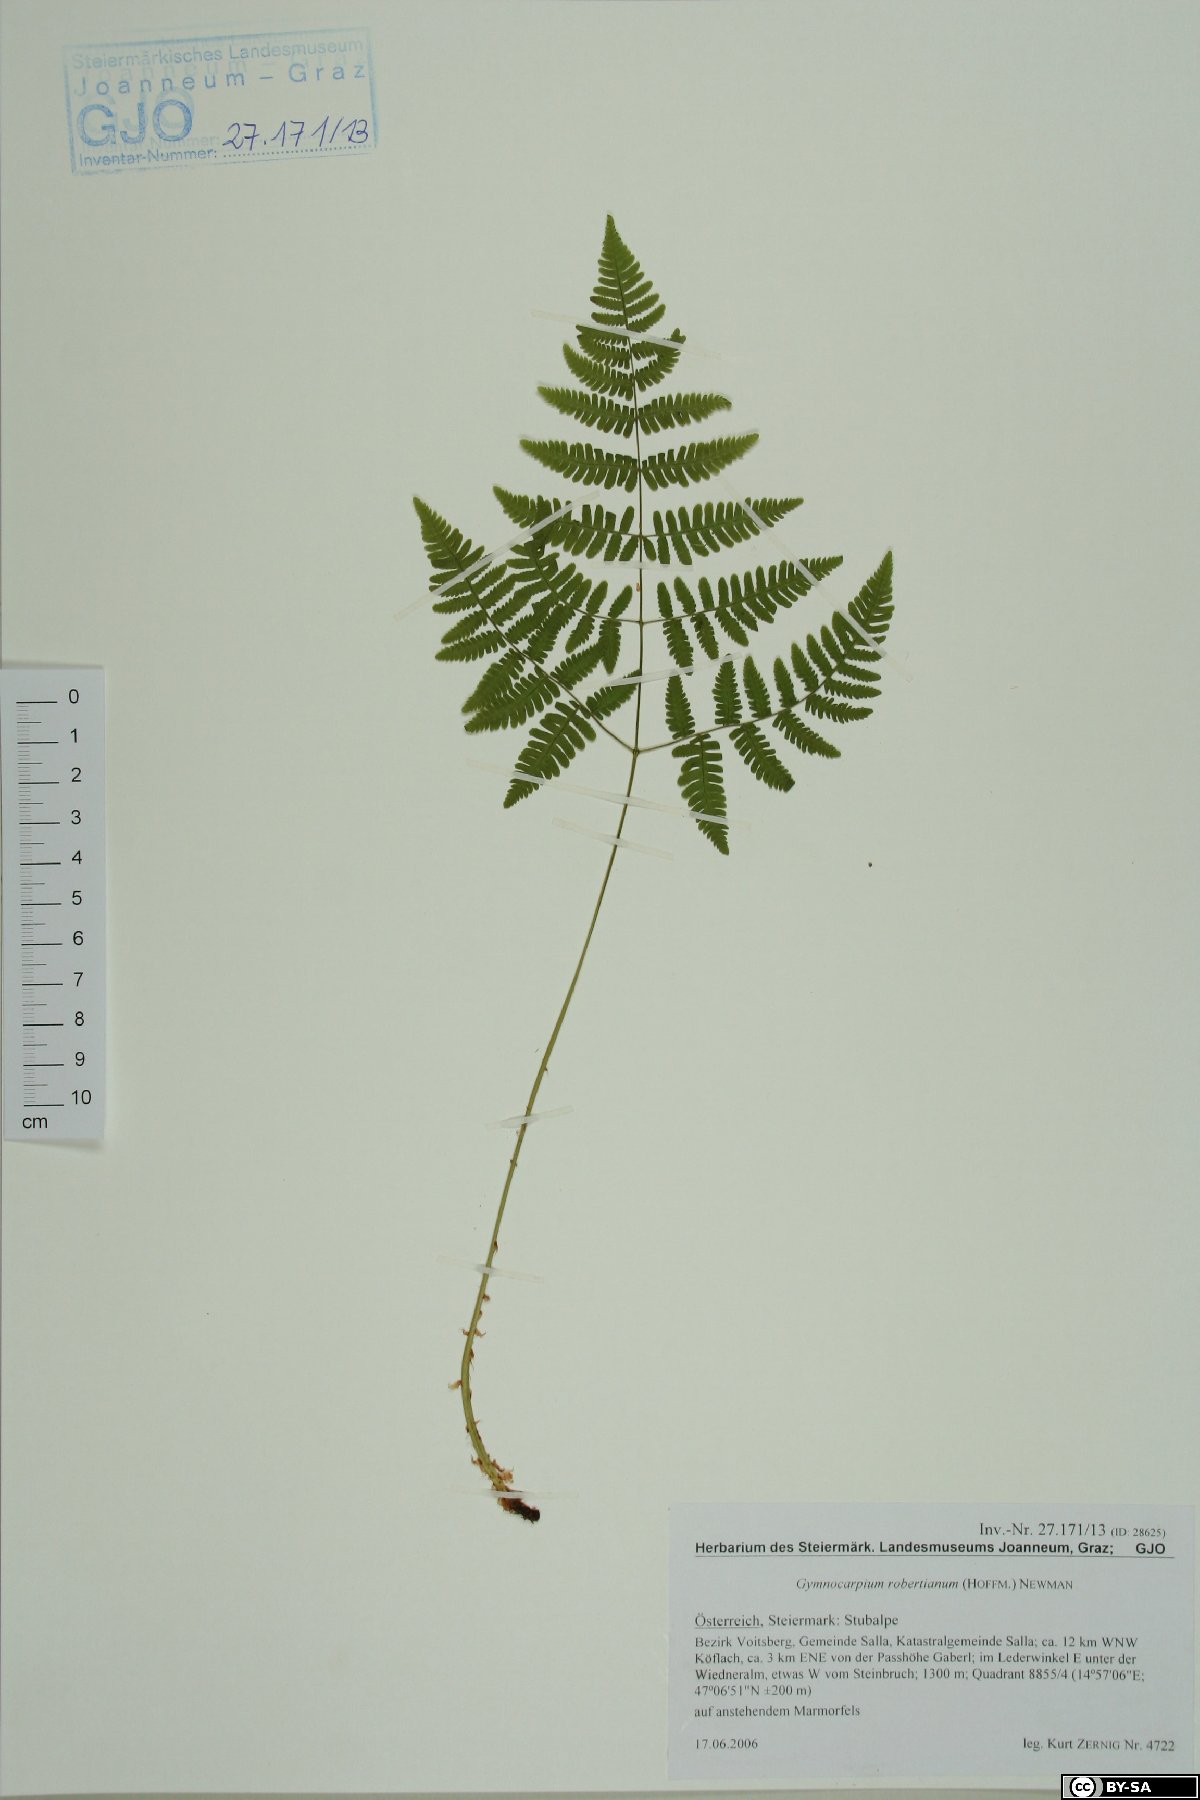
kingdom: Plantae
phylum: Tracheophyta
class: Polypodiopsida
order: Polypodiales
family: Cystopteridaceae
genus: Gymnocarpium
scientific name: Gymnocarpium robertianum
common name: Limestone fern
